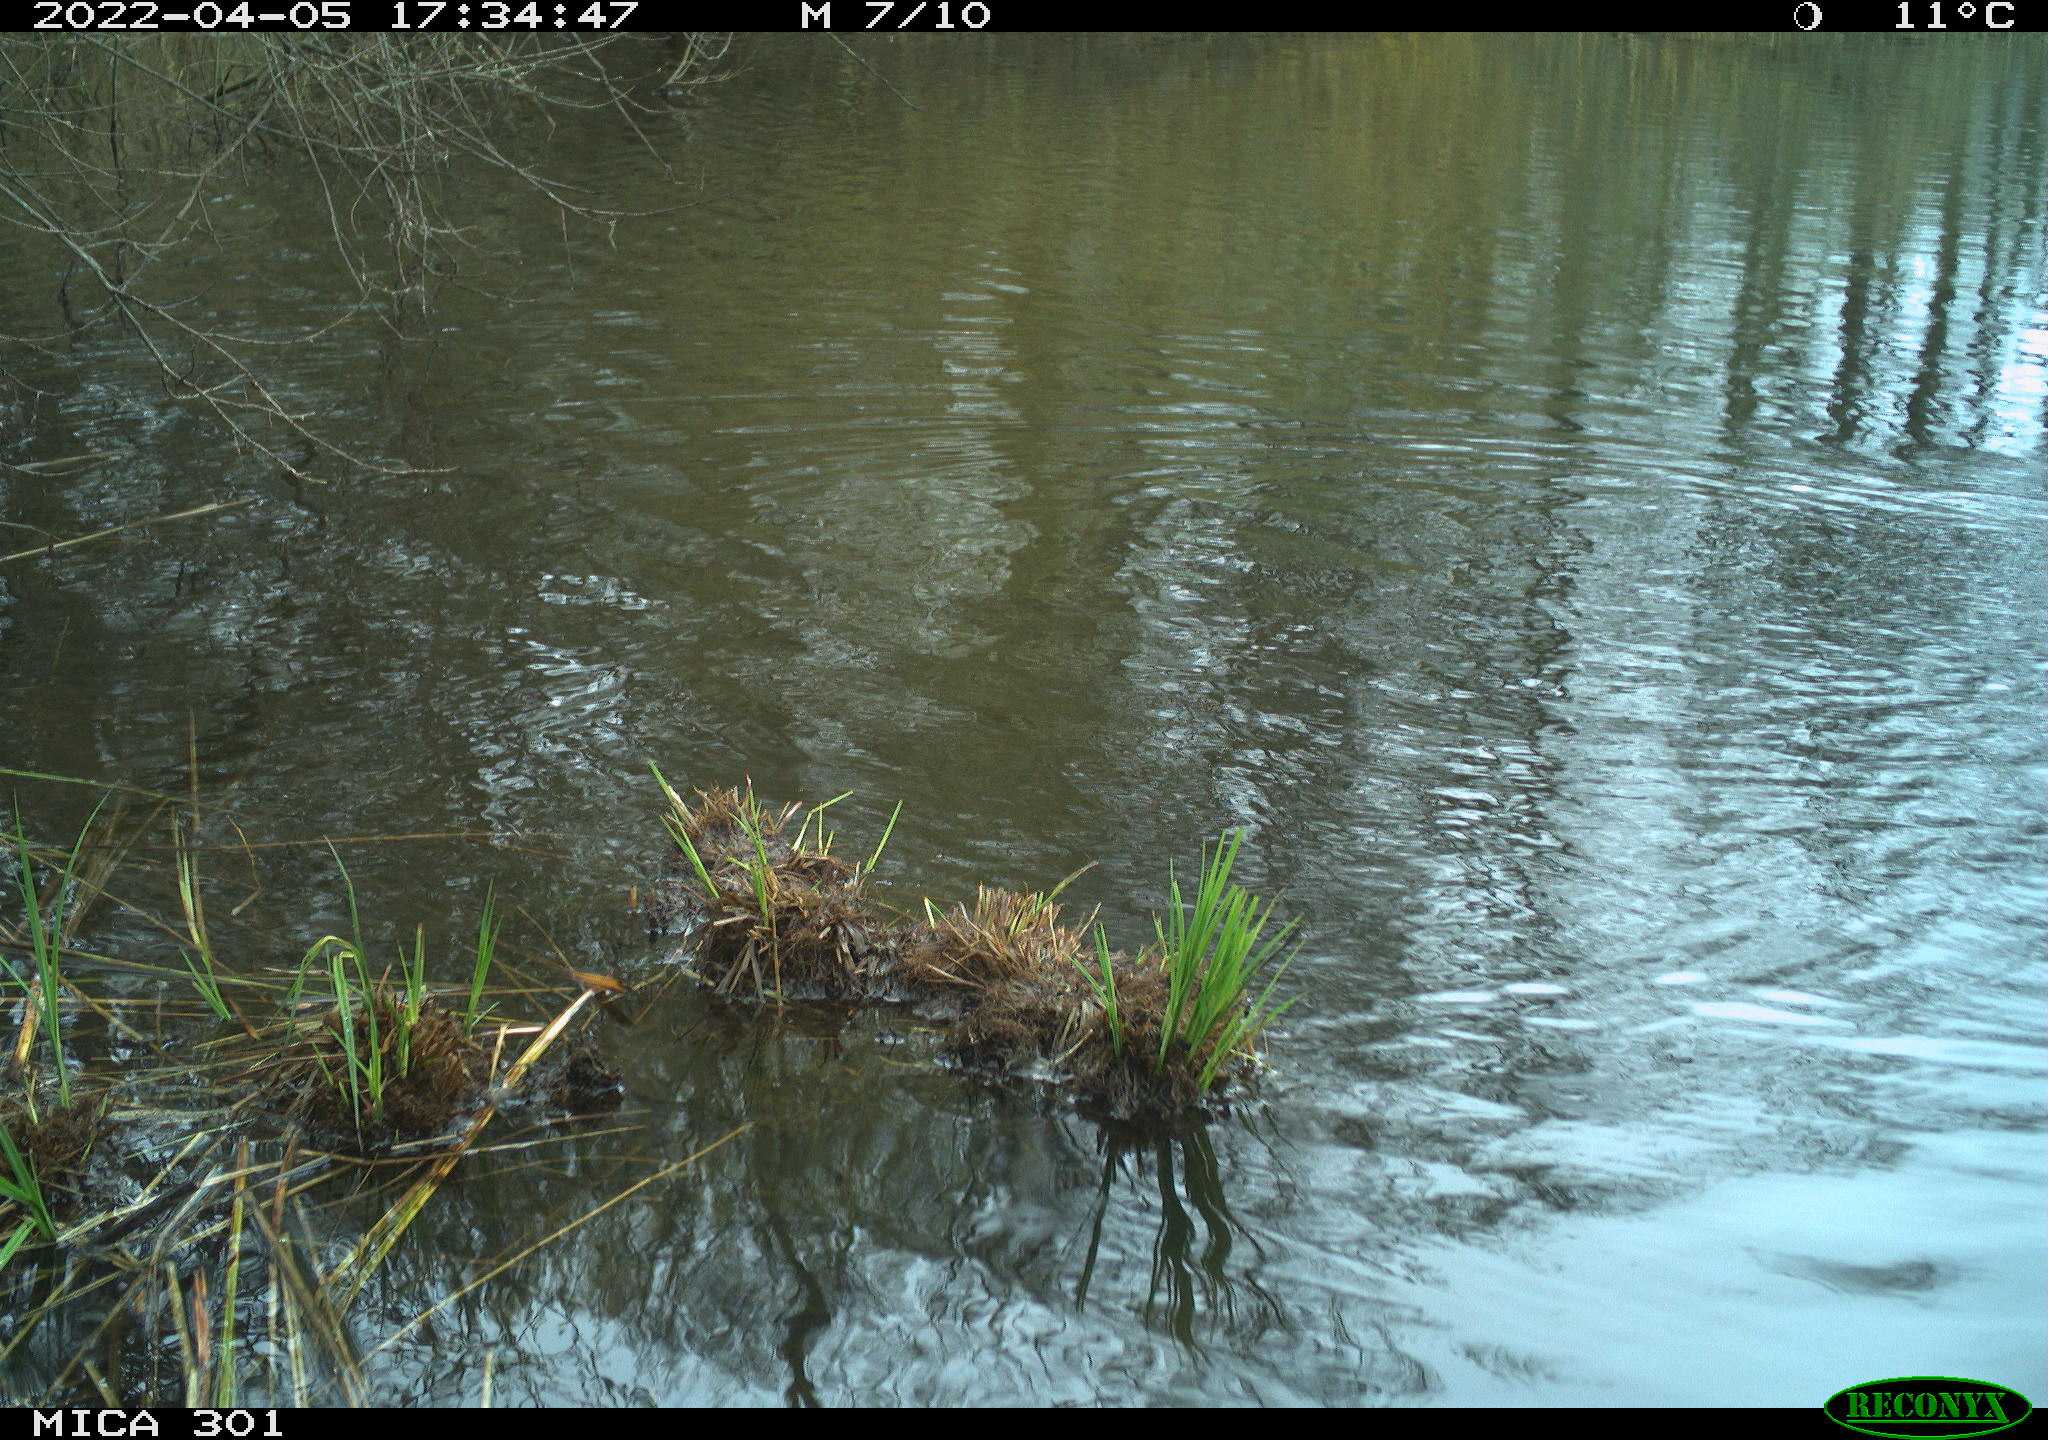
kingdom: Animalia
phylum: Chordata
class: Aves
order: Anseriformes
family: Anatidae
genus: Anser
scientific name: Anser anser
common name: Greylag goose
